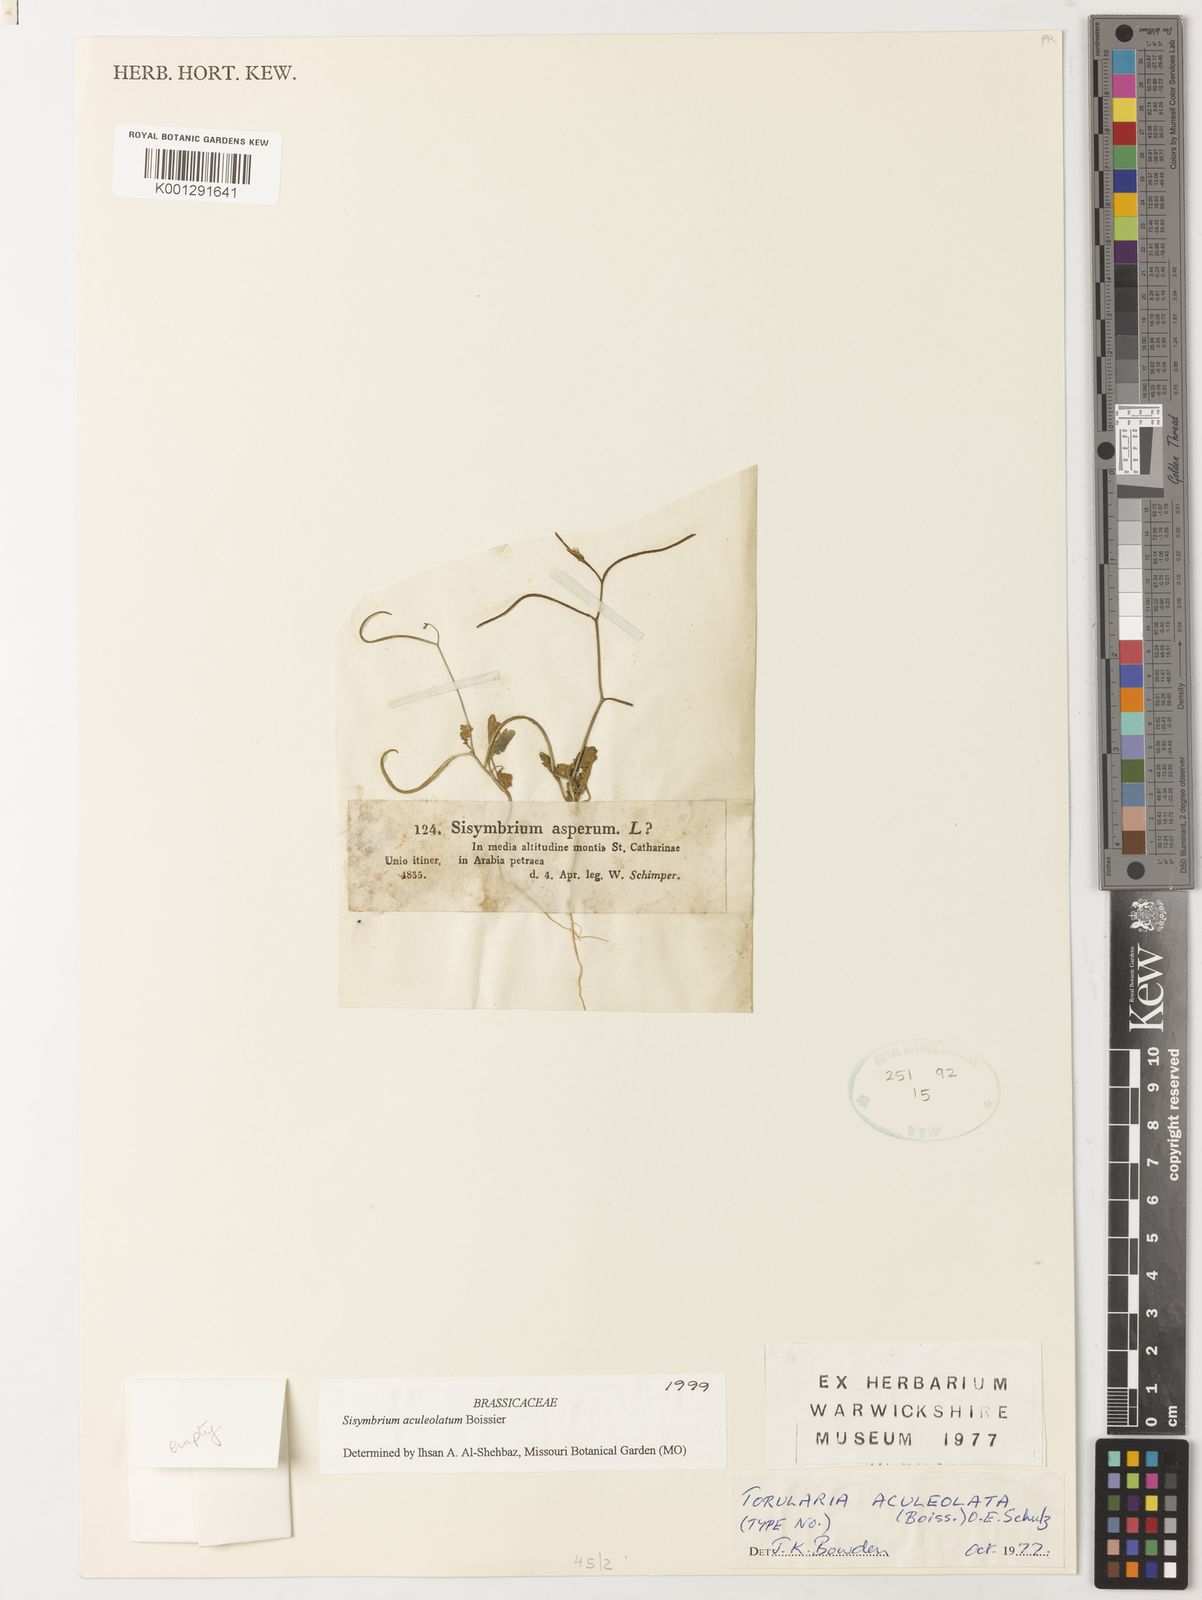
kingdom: Plantae
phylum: Tracheophyta
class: Magnoliopsida
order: Brassicales
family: Brassicaceae
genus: Sisymbrium
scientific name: Sisymbrium aculeolatum
